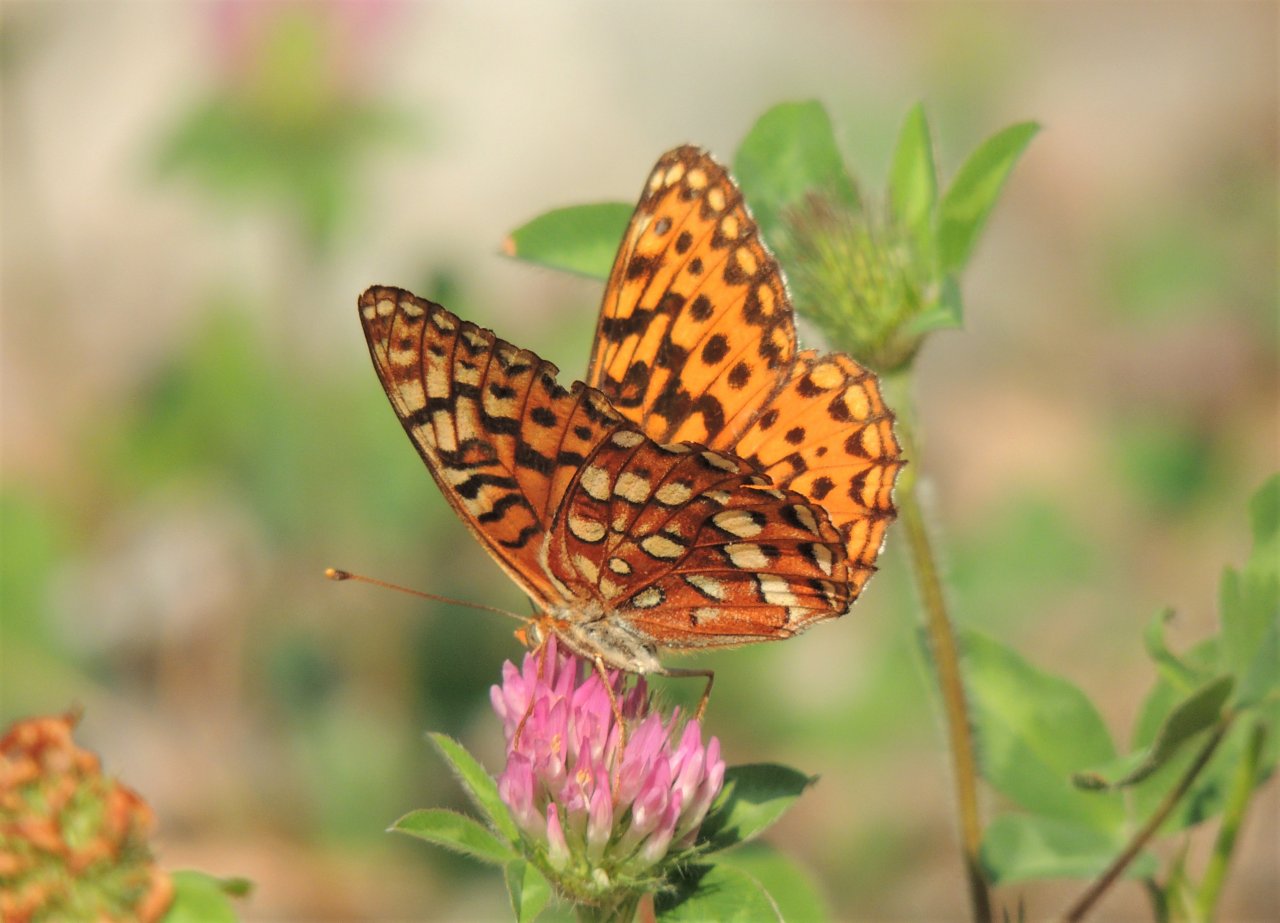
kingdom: Animalia
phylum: Arthropoda
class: Insecta
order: Lepidoptera
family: Nymphalidae
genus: Speyeria
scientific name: Speyeria hydaspe
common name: Hydaspe Fritillary
